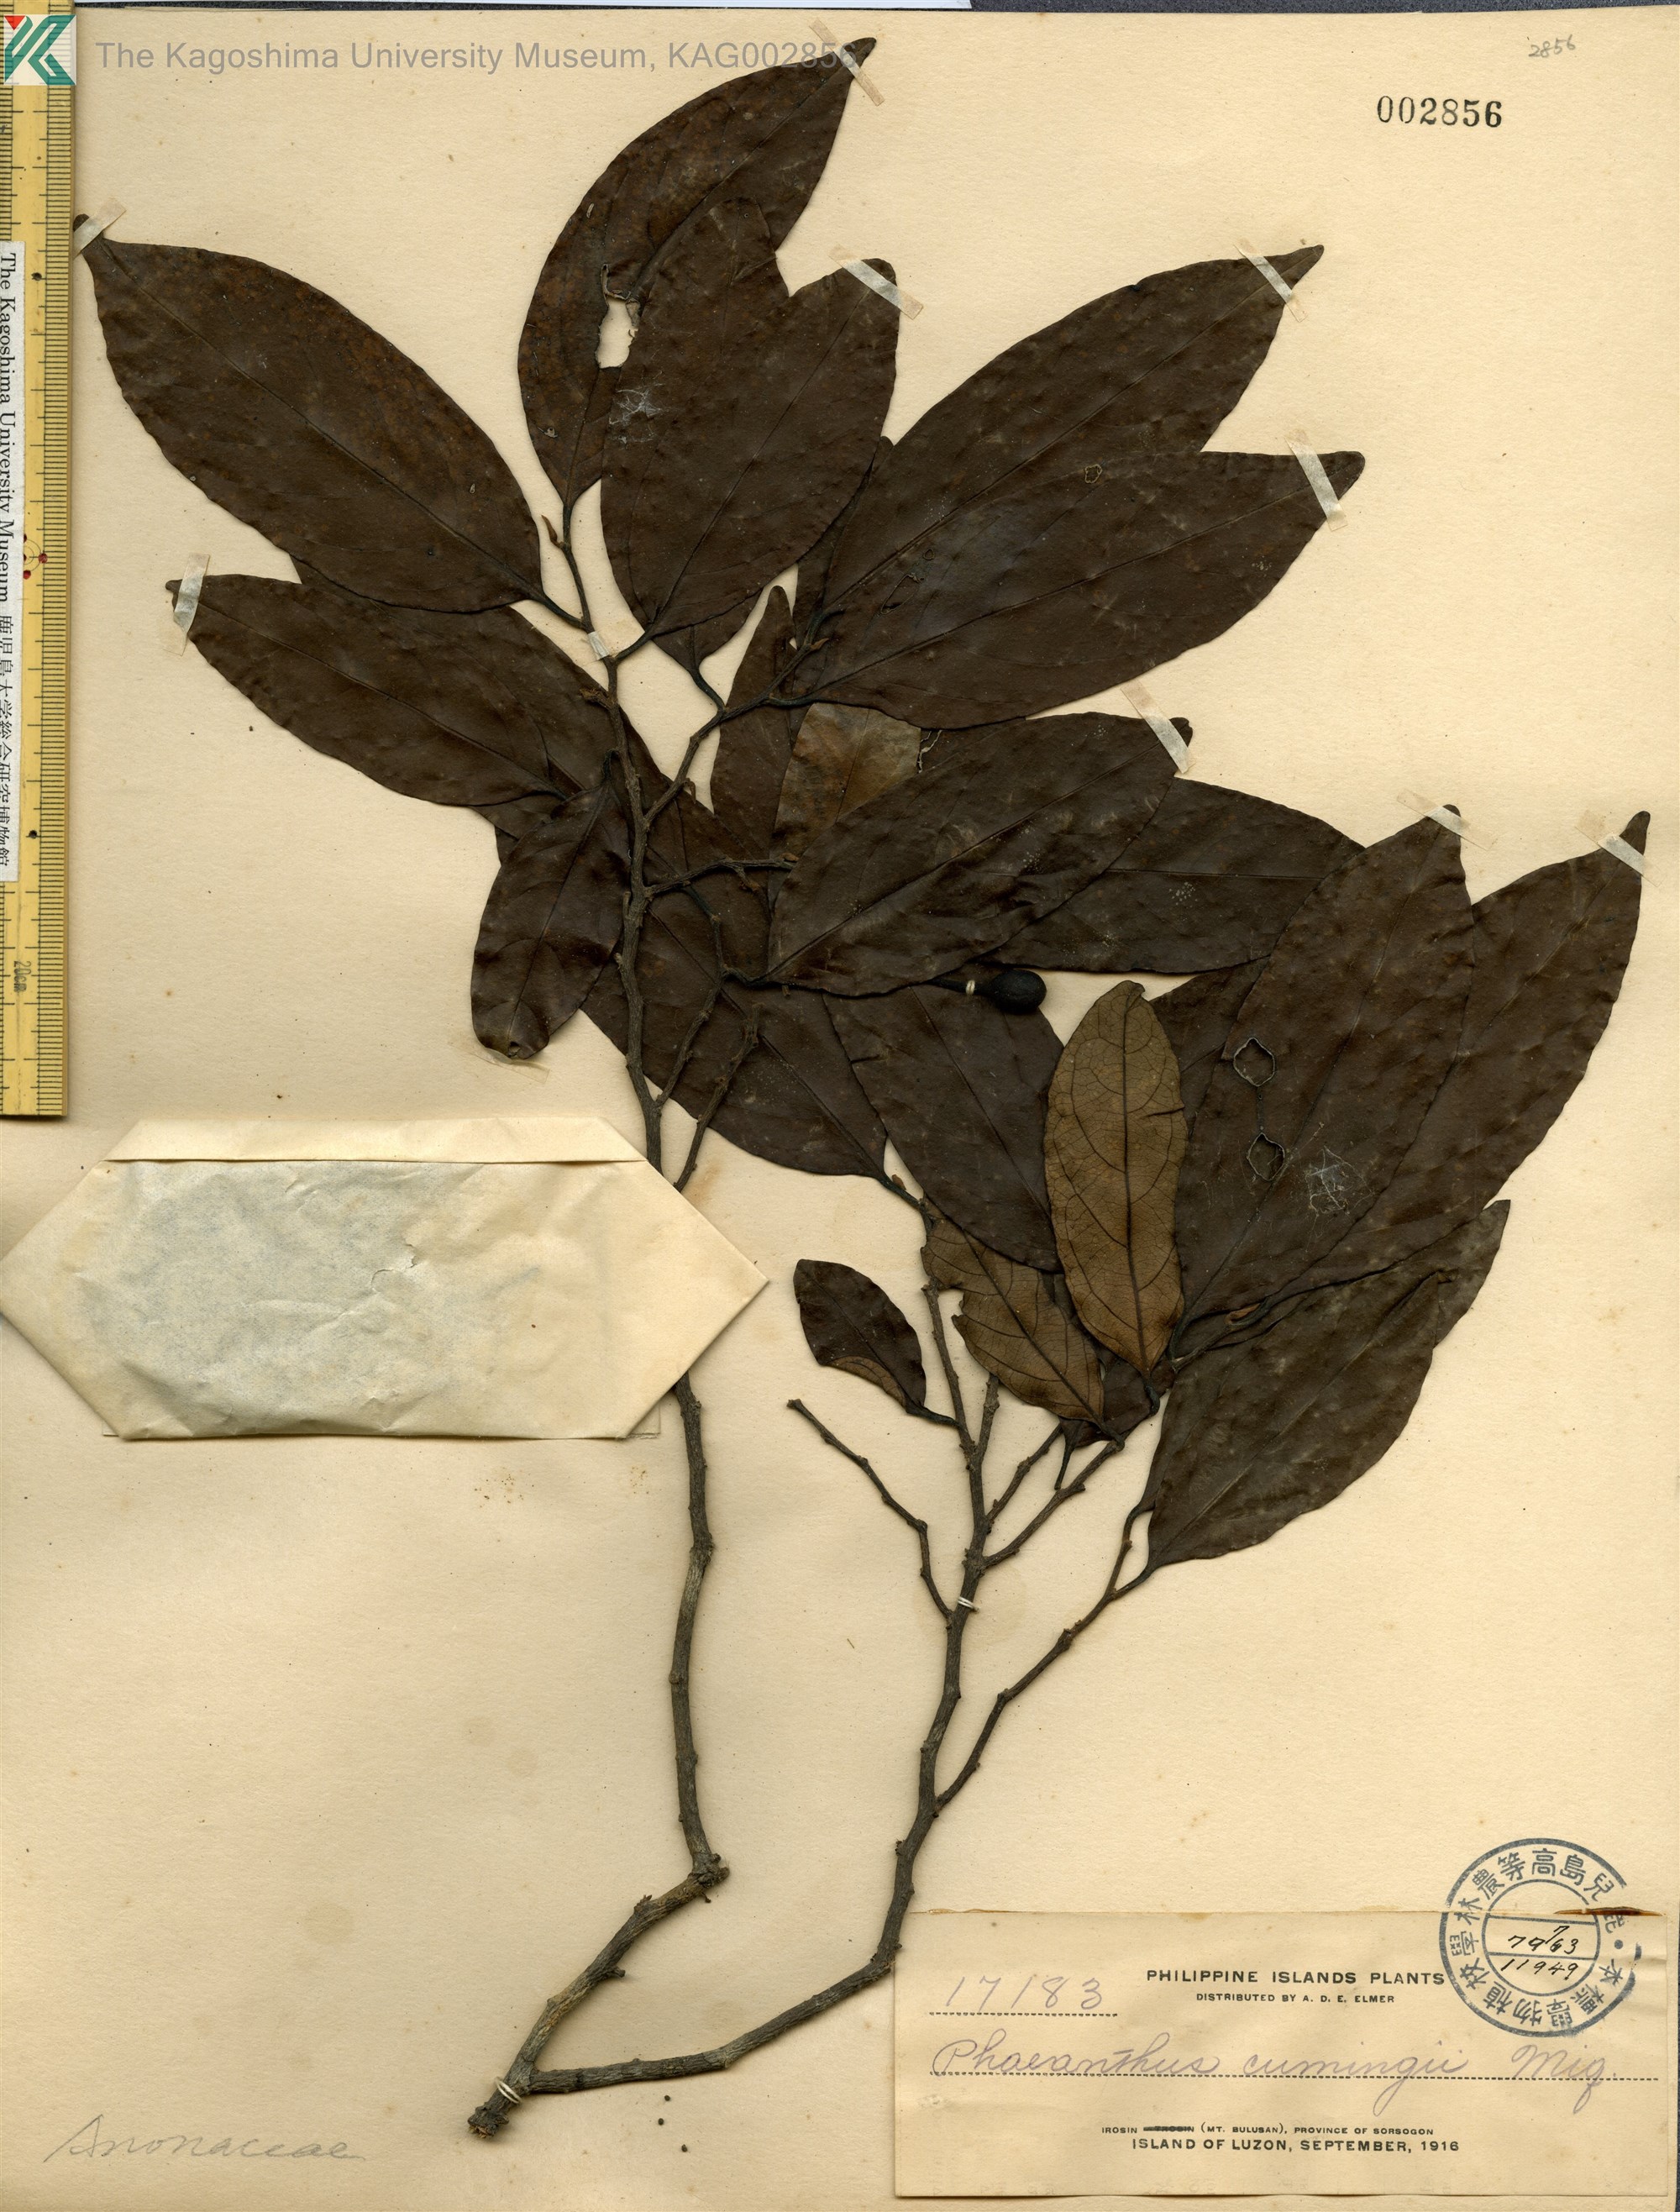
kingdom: Plantae
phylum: Tracheophyta
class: Magnoliopsida
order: Magnoliales
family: Annonaceae
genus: Phaeanthus
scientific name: Phaeanthus ophthalmicus
